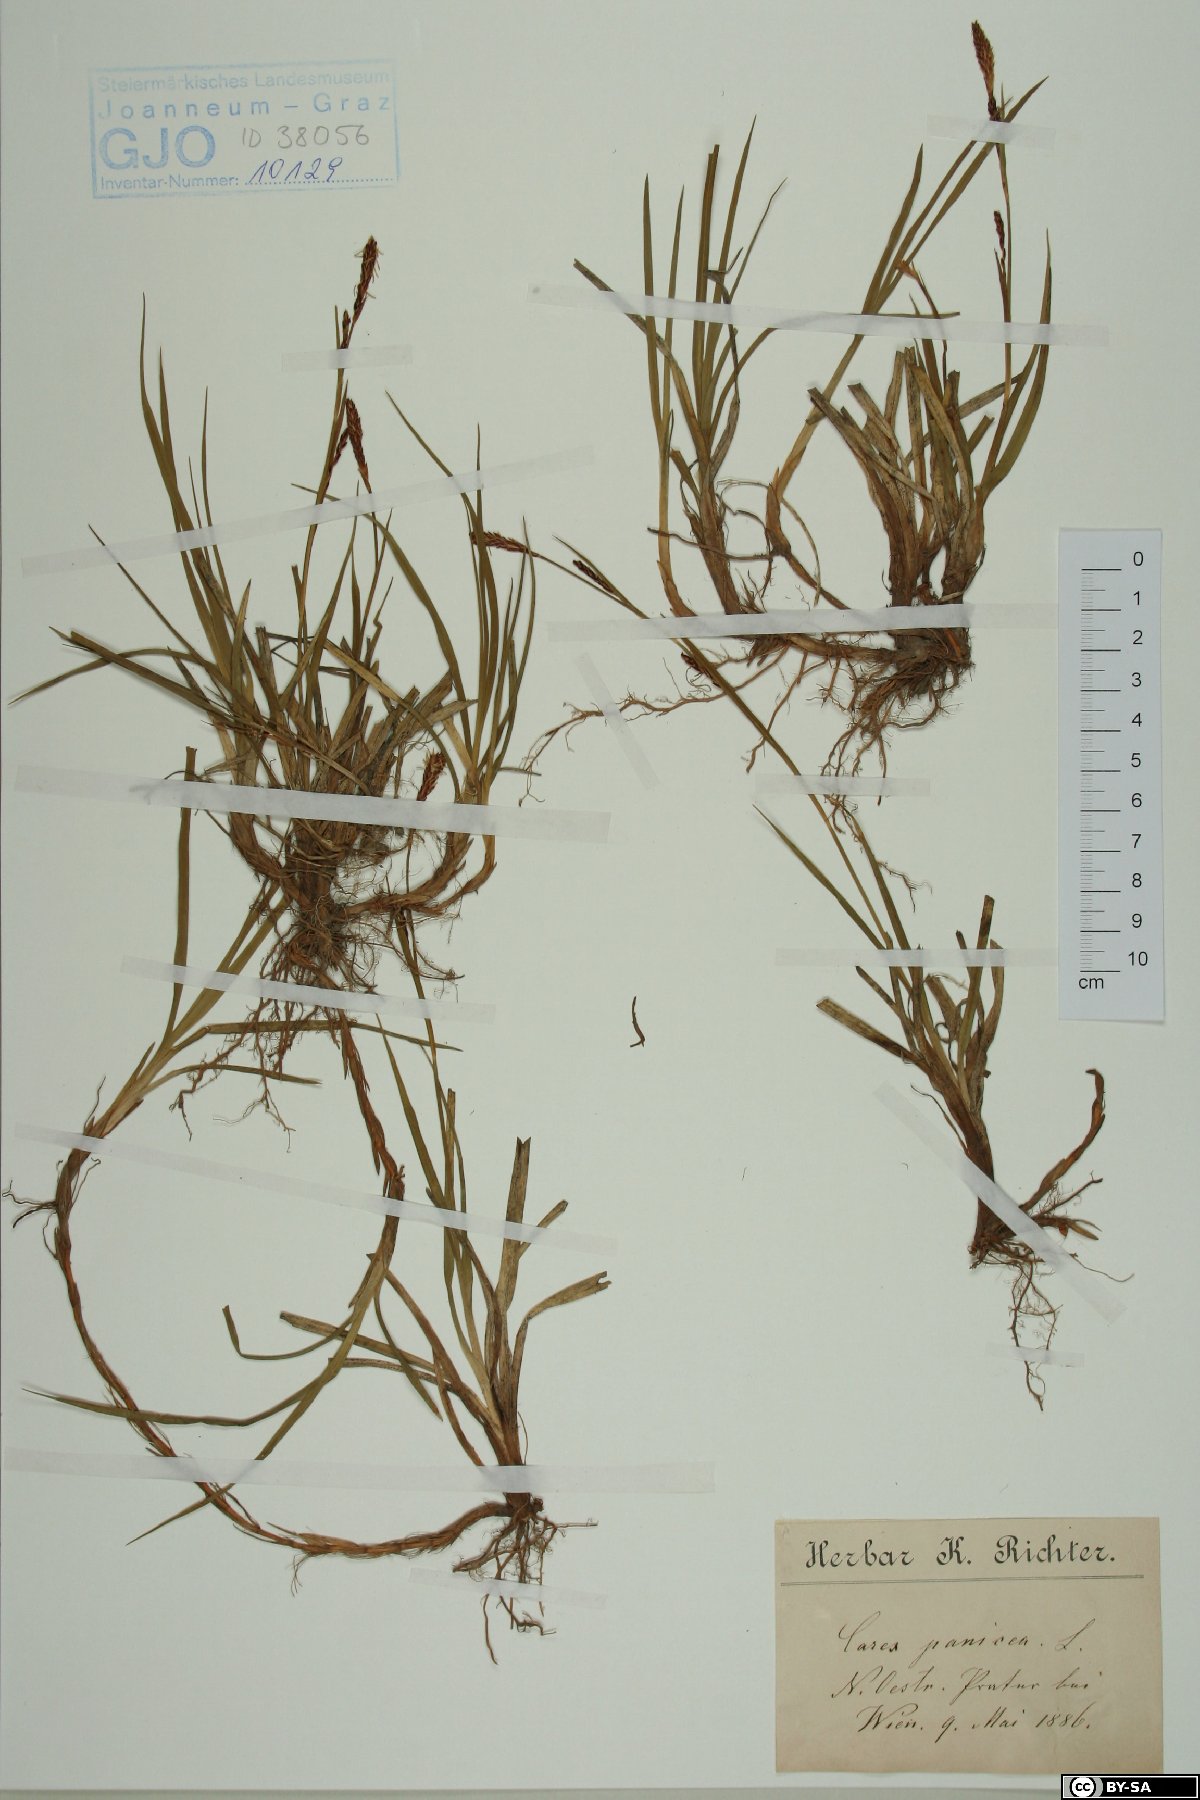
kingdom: Plantae
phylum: Tracheophyta
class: Liliopsida
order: Poales
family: Cyperaceae
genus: Carex
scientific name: Carex panicea
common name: Carnation sedge
